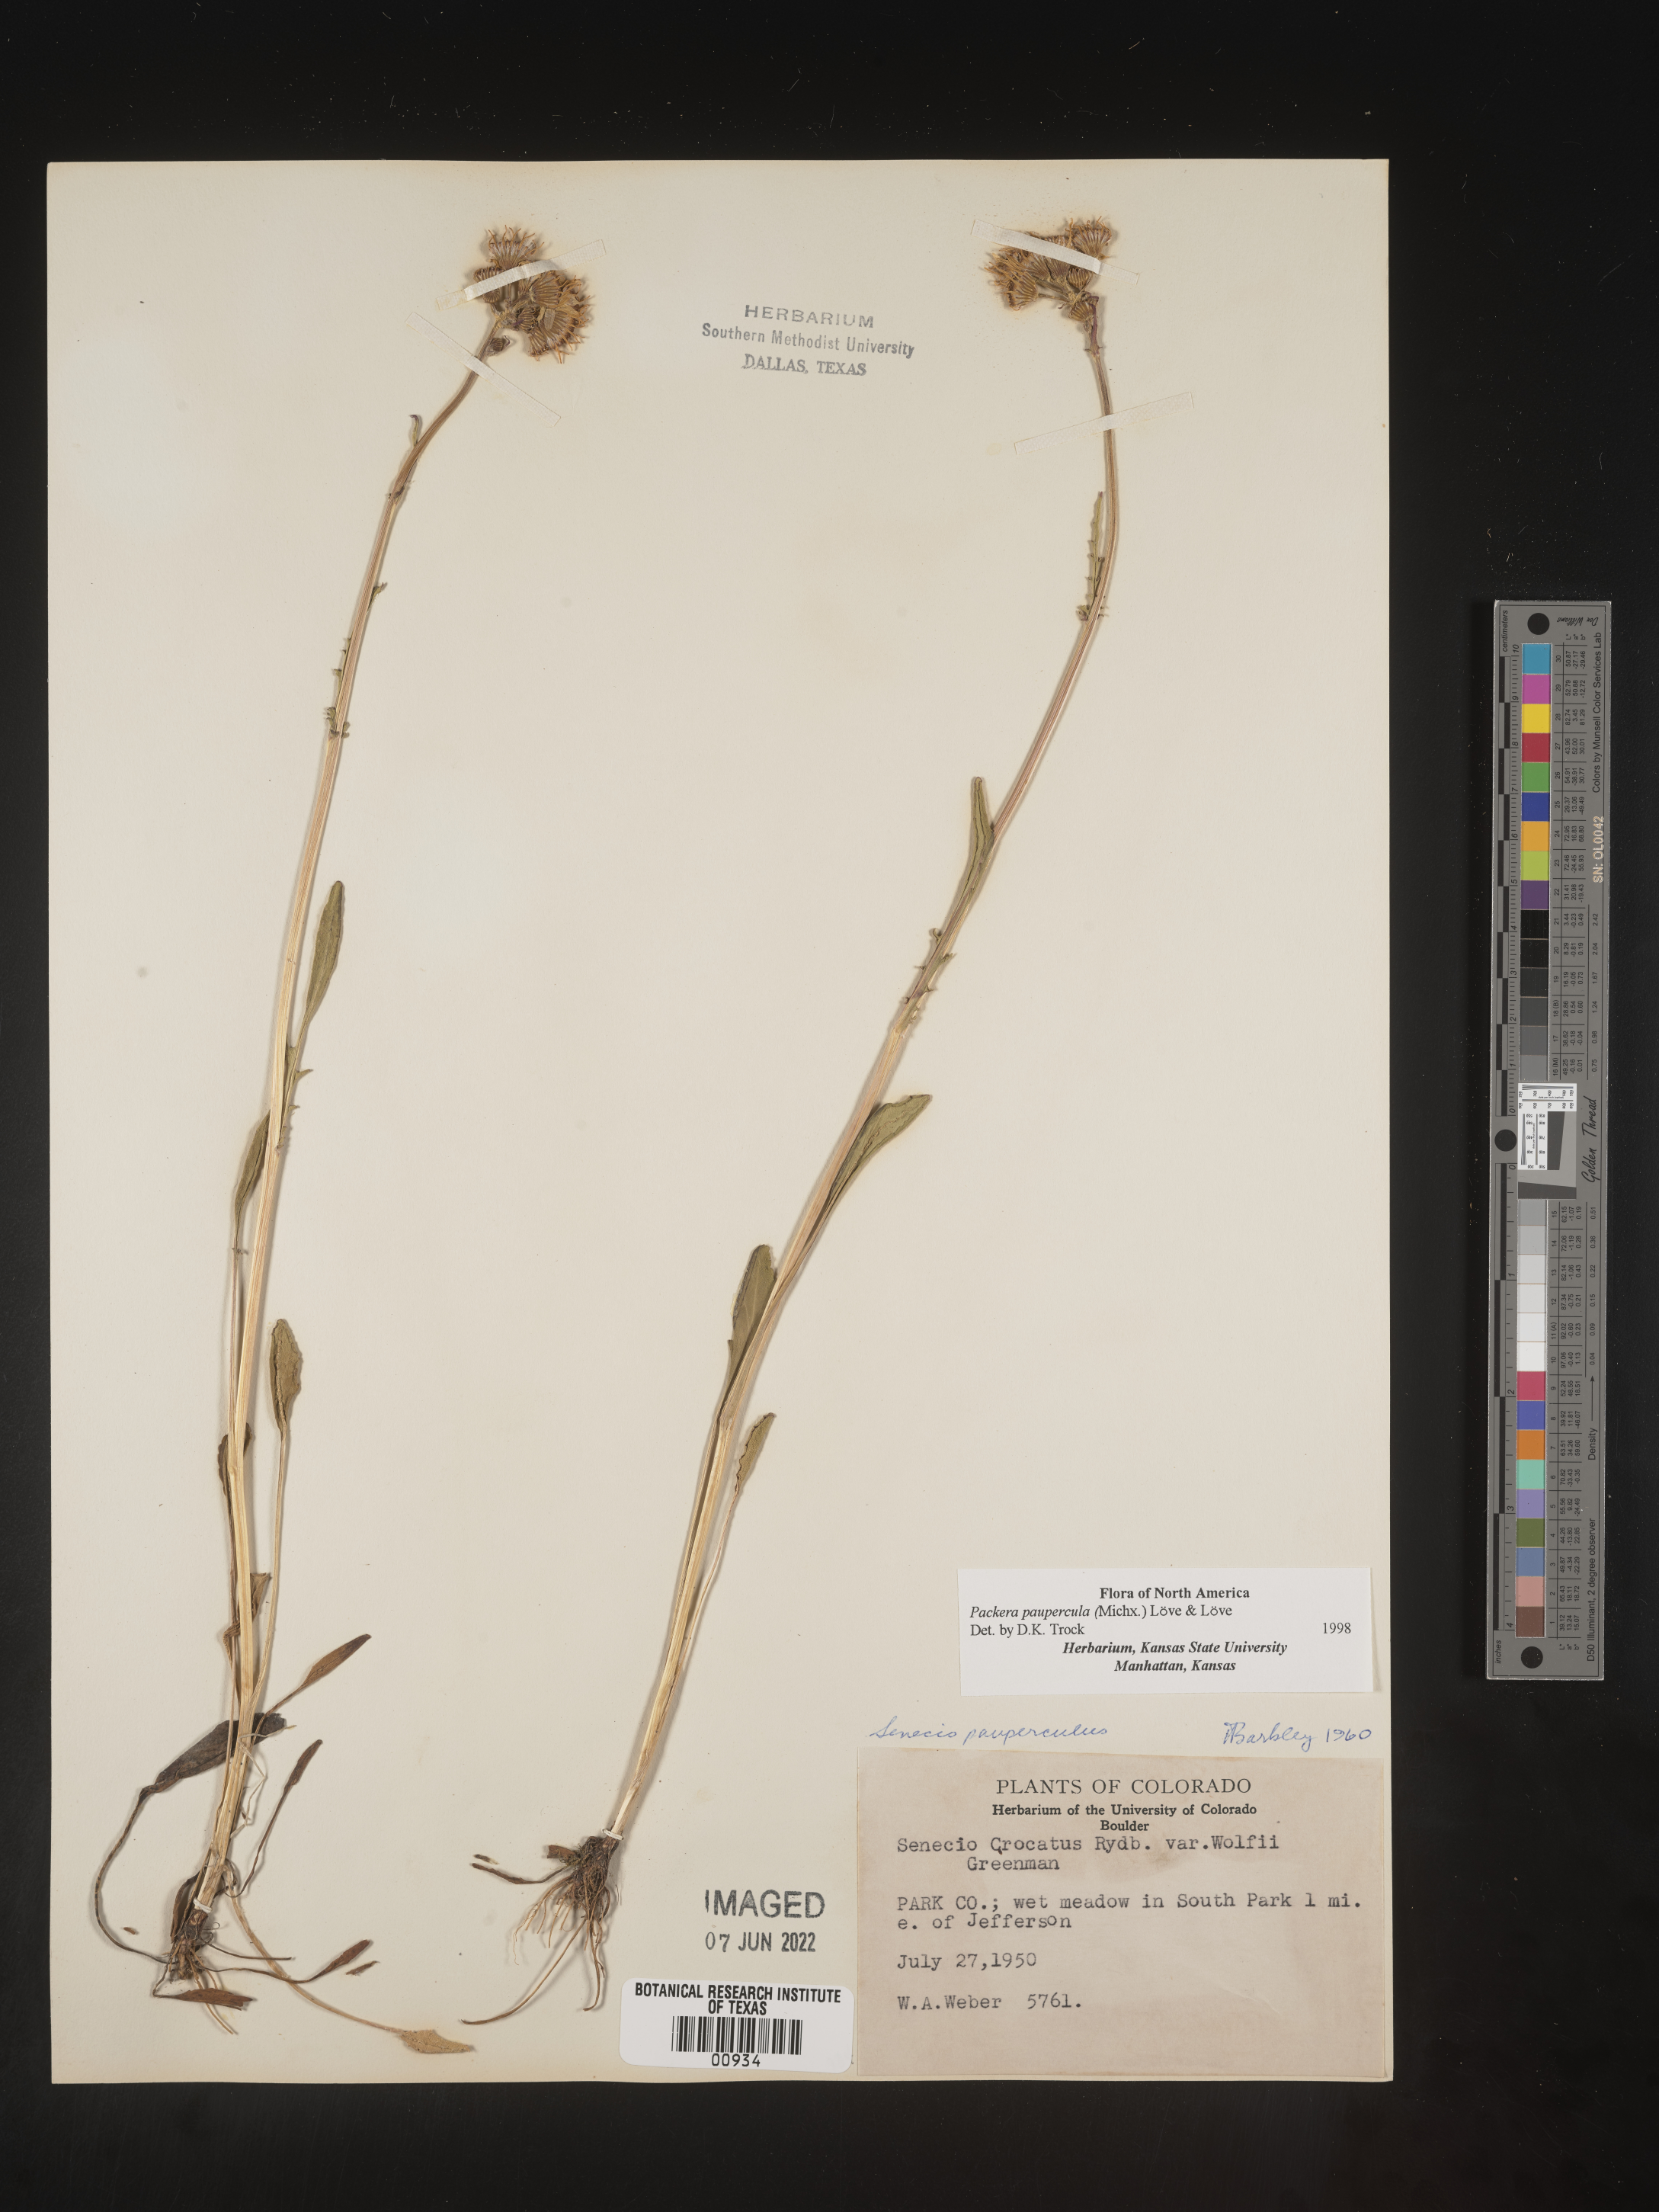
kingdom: Plantae
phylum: Tracheophyta
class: Magnoliopsida
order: Asterales
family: Asteraceae
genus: Packera
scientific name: Packera paupercula
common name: Balsam groundsel
